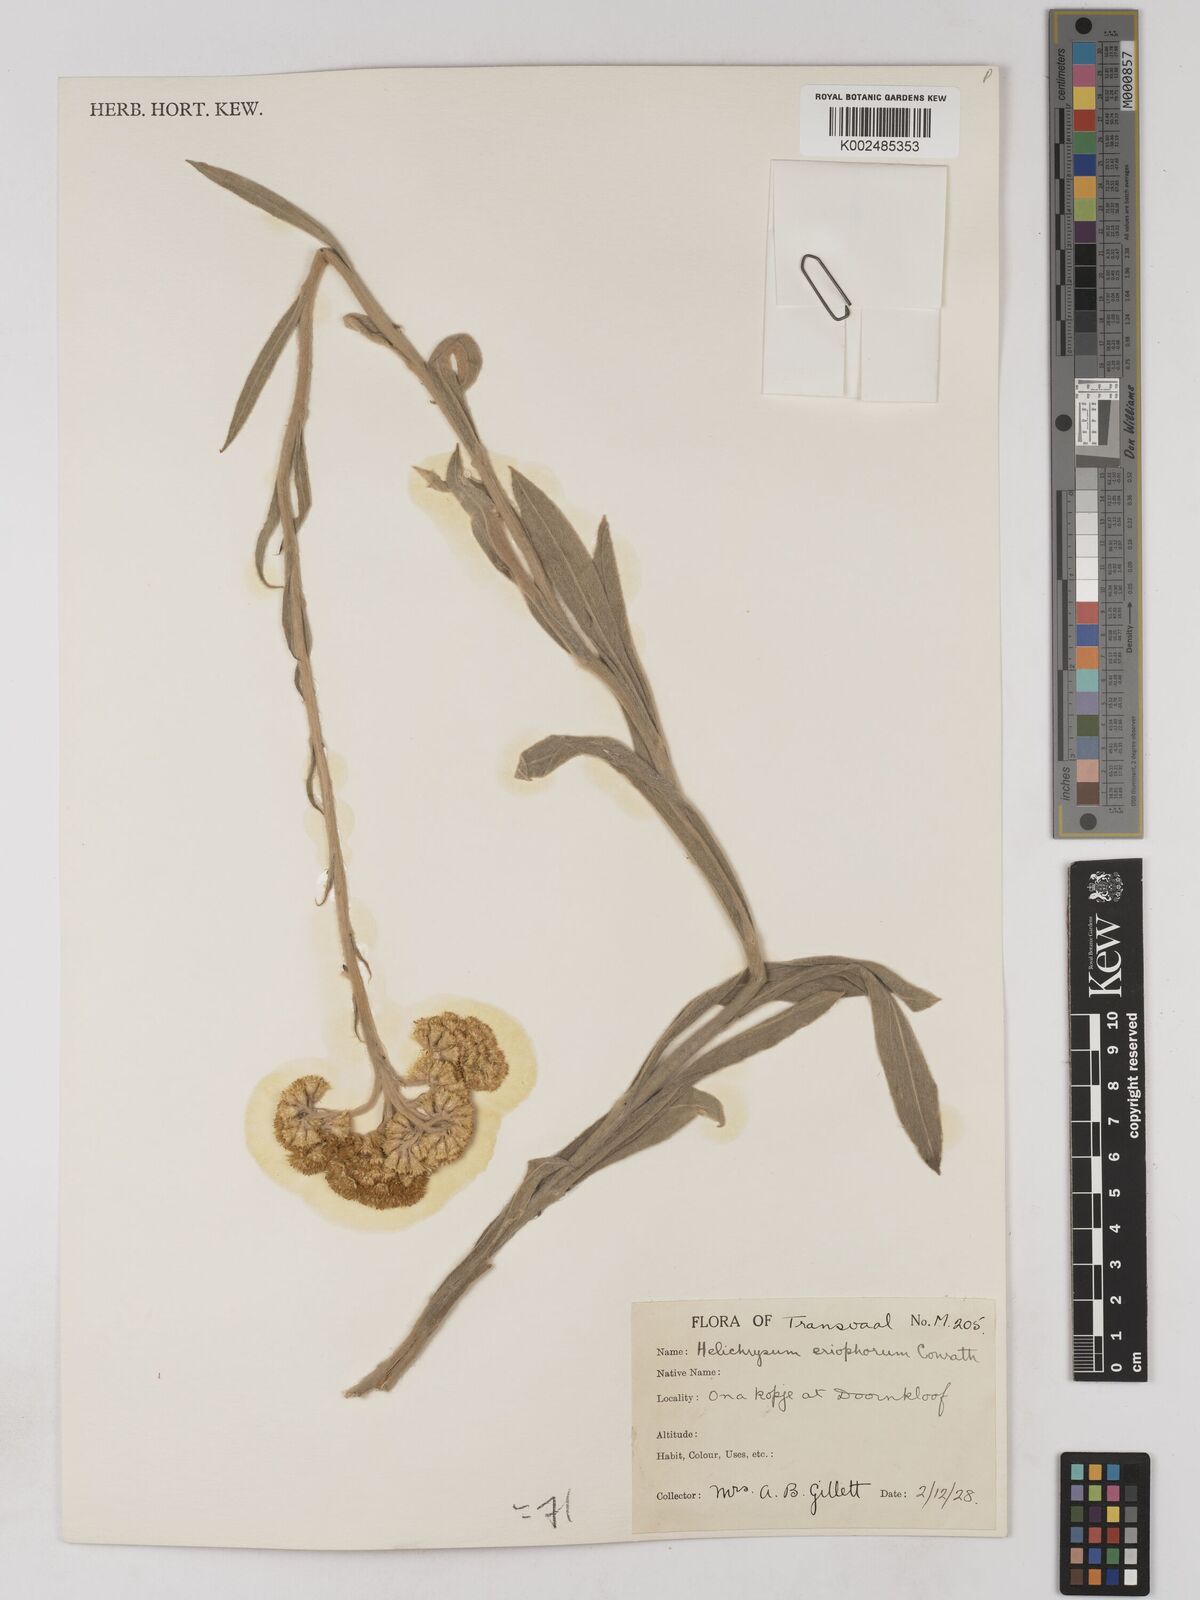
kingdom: Plantae
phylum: Tracheophyta
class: Magnoliopsida
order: Asterales
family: Asteraceae
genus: Helichrysum
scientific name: Helichrysum acutatum
